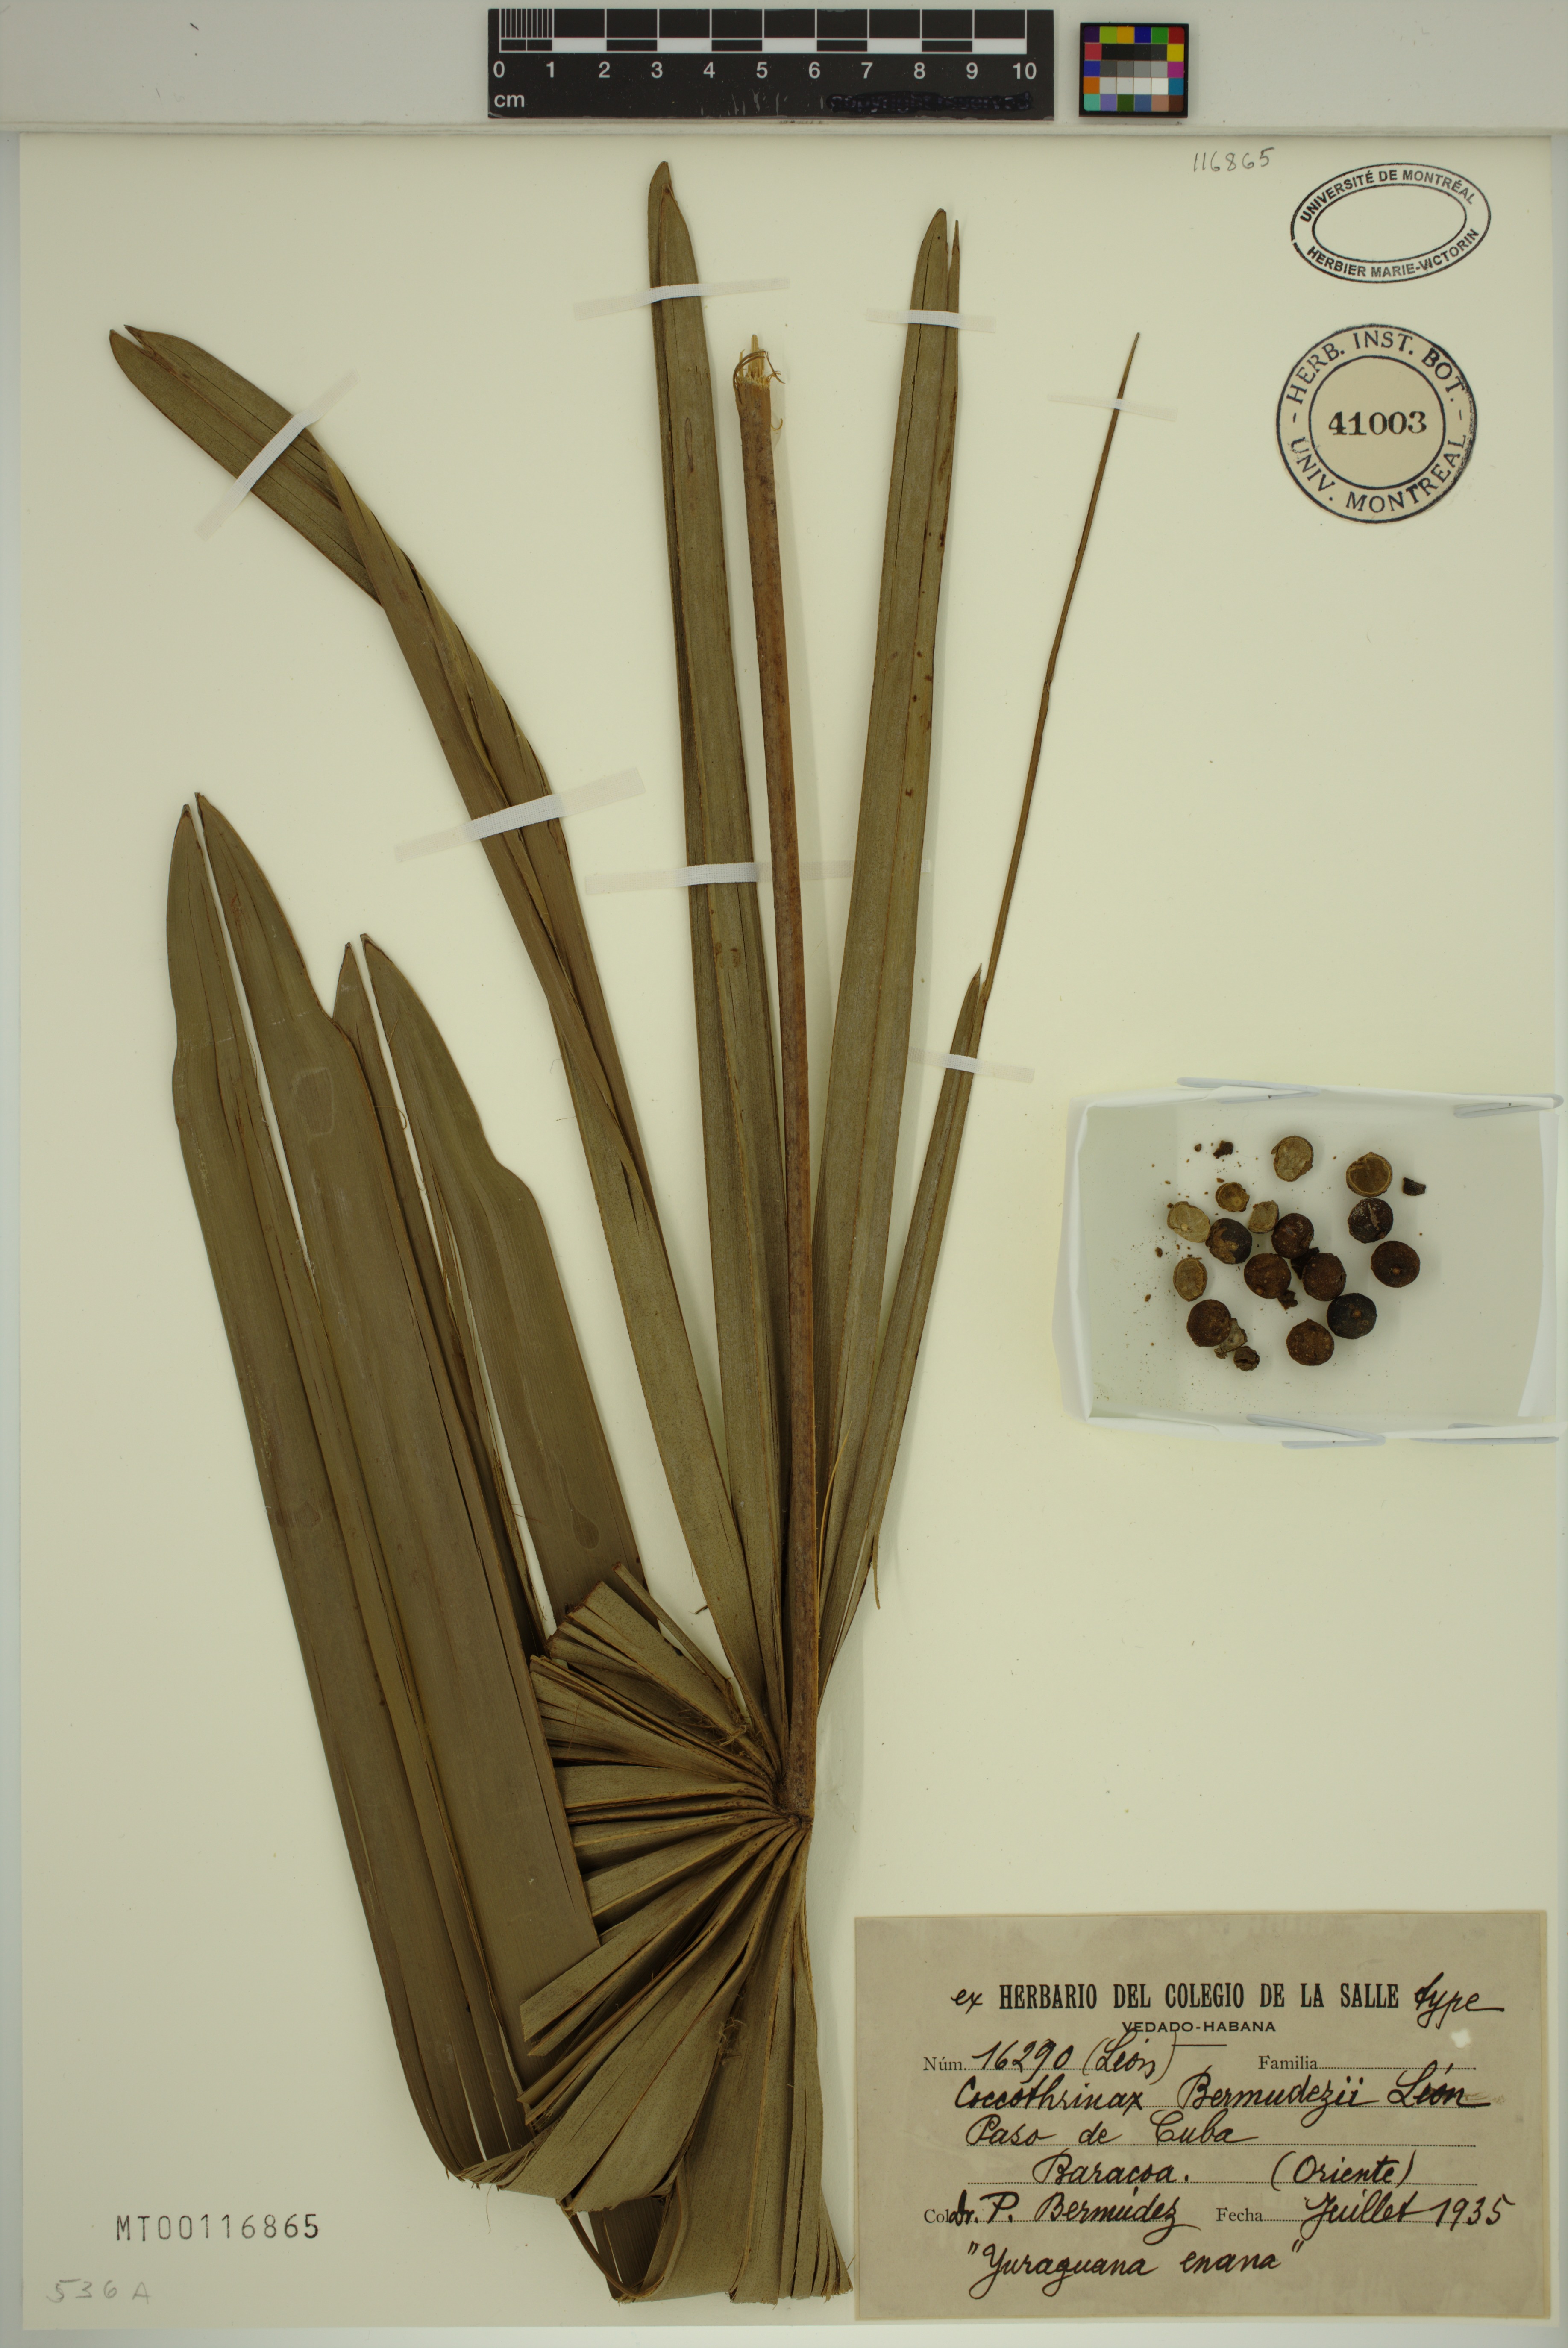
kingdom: Plantae
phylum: Tracheophyta
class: Liliopsida
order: Arecales
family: Arecaceae
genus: Coccothrinax
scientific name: Coccothrinax bermudezii
